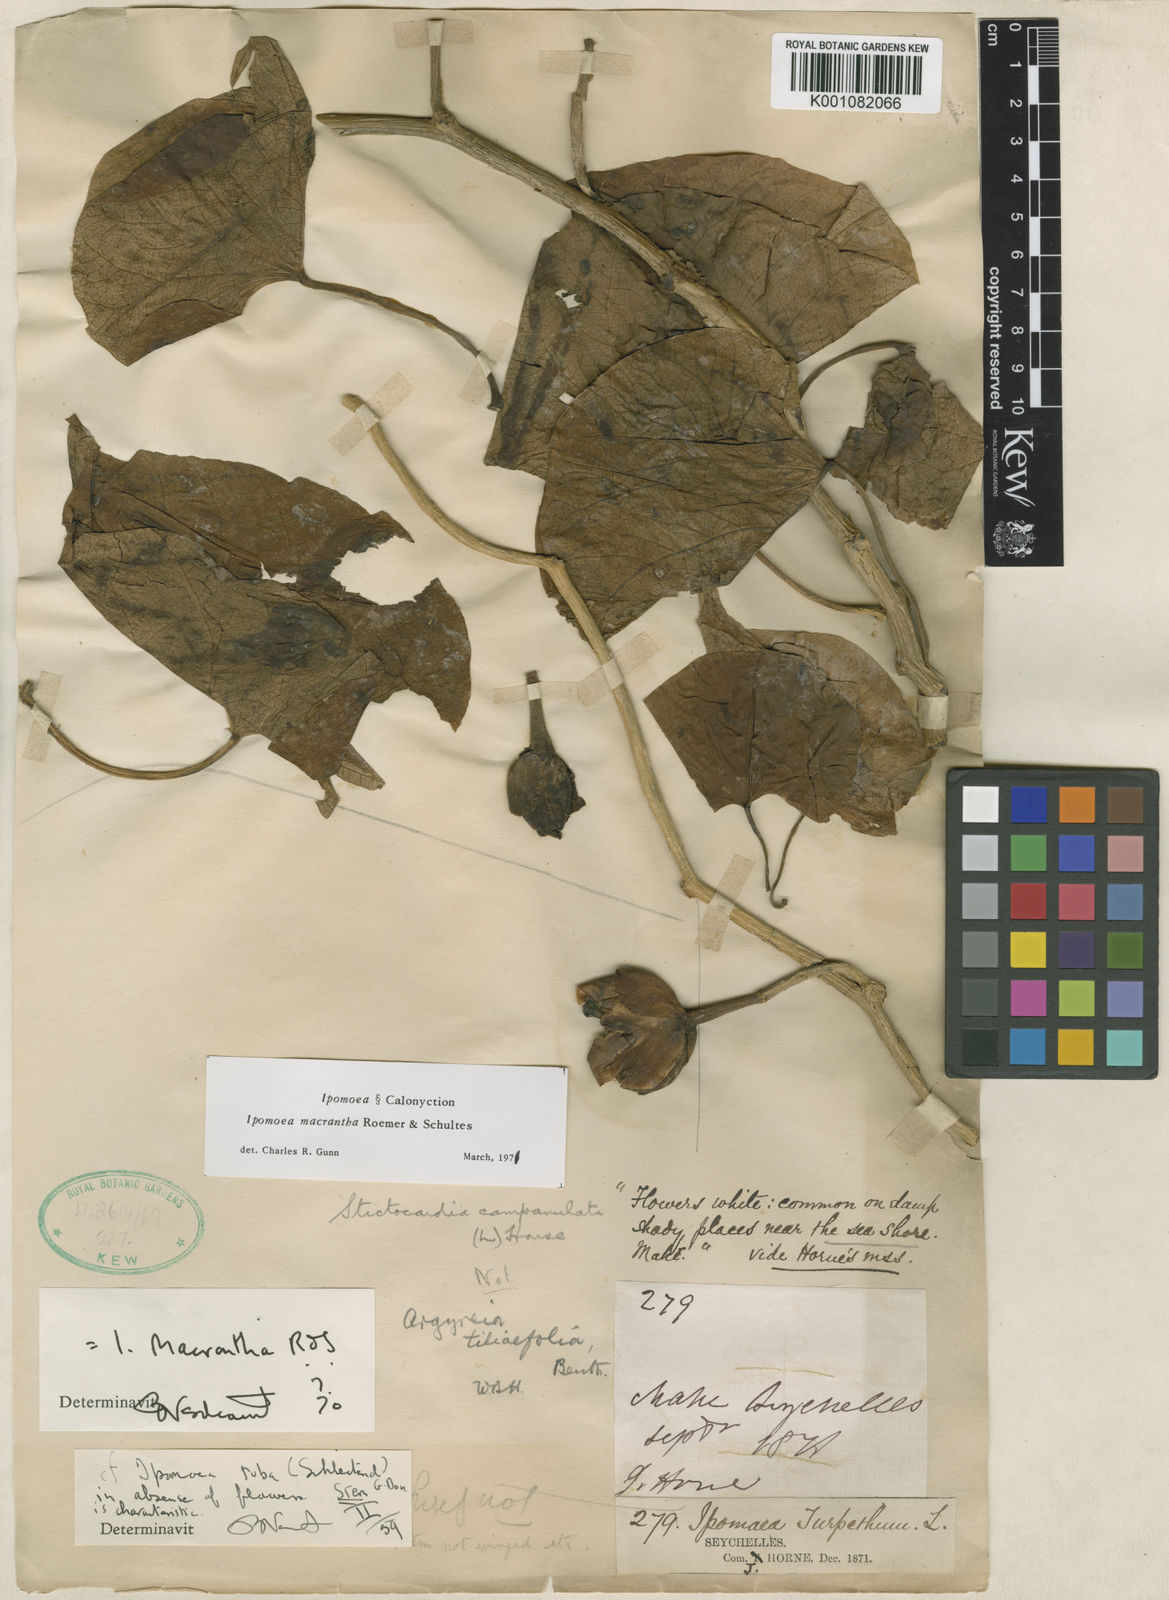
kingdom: Plantae
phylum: Tracheophyta
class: Magnoliopsida
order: Solanales
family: Convolvulaceae
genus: Ipomoea
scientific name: Ipomoea violacea
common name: Beach moonflower
